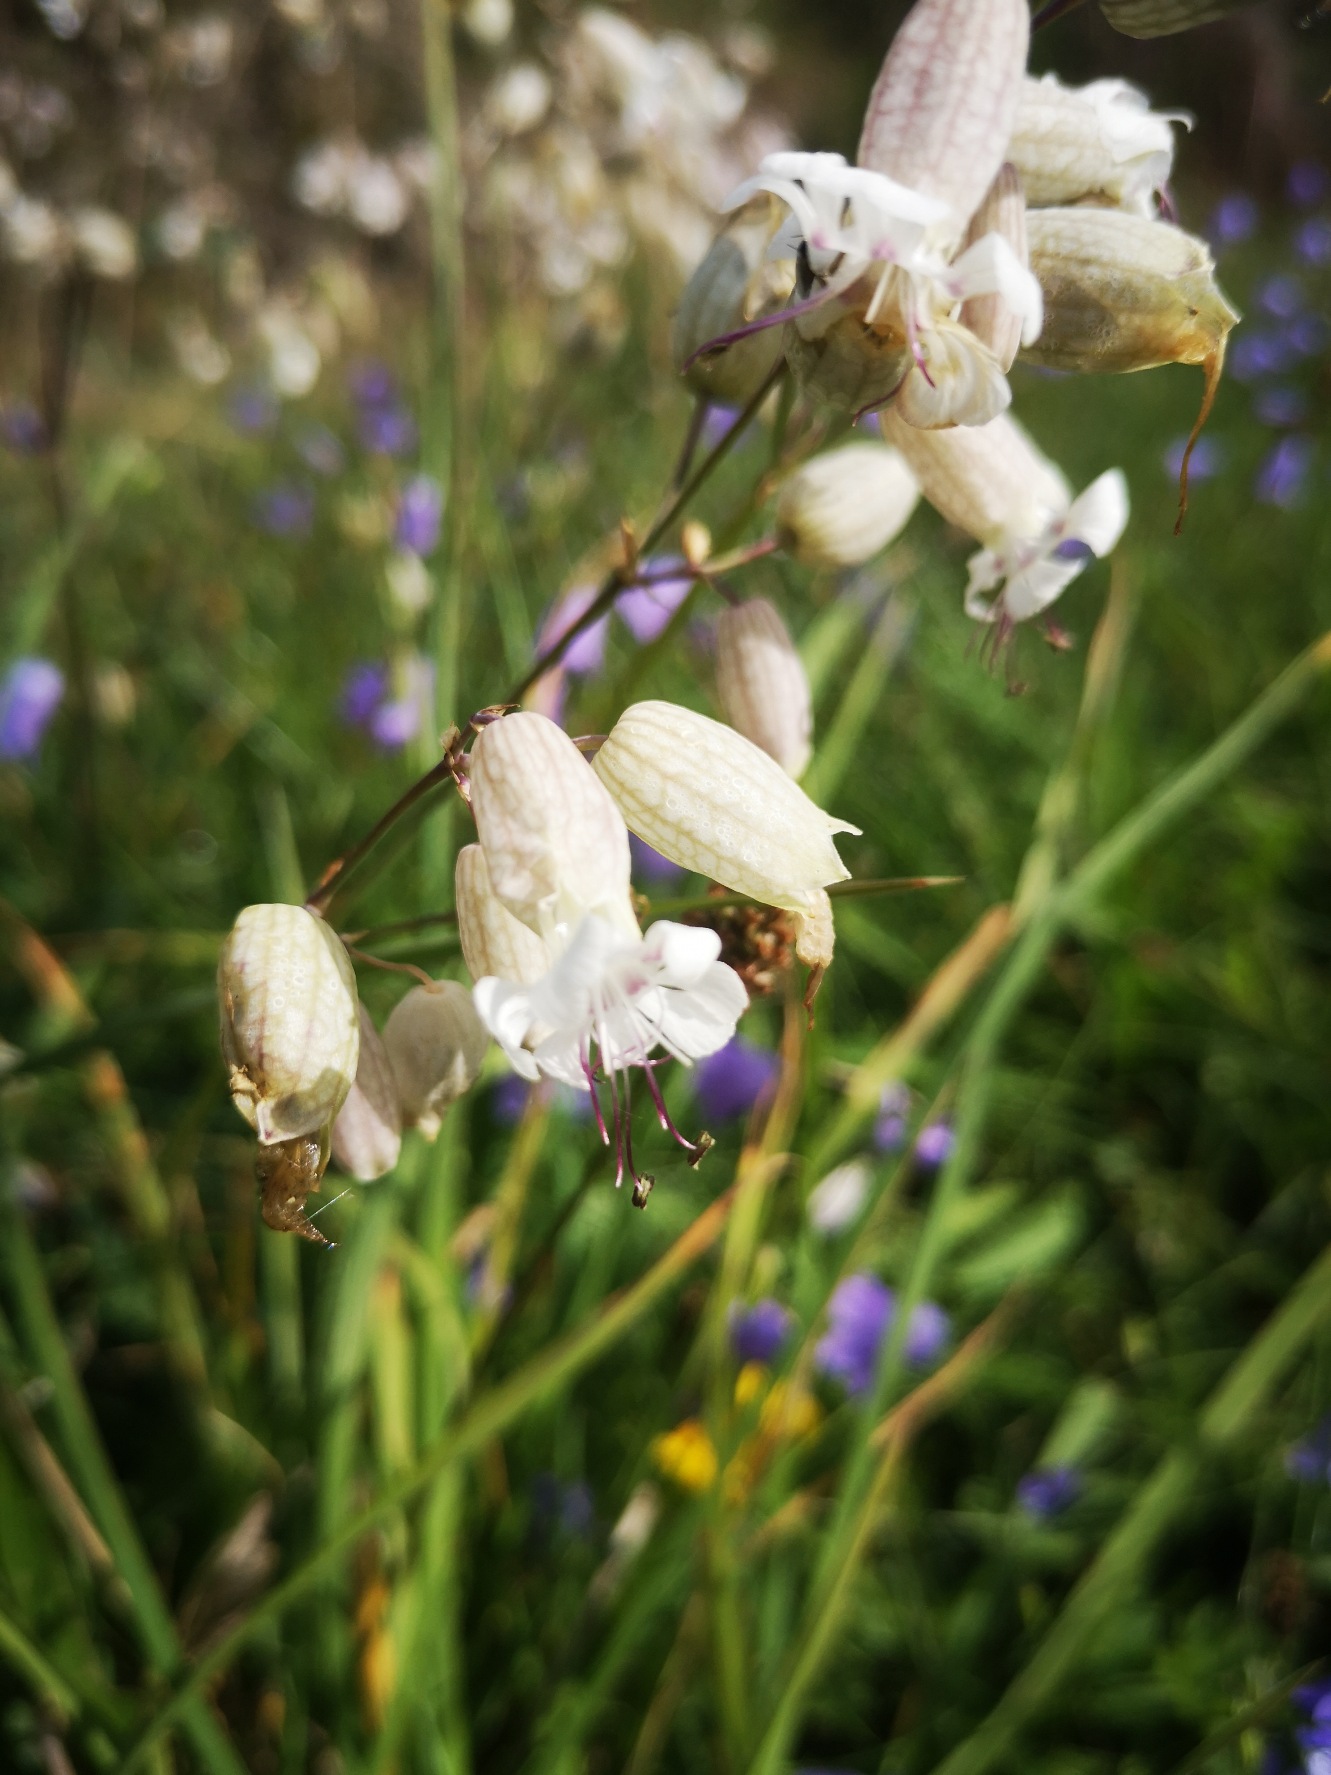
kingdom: Plantae
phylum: Tracheophyta
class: Magnoliopsida
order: Caryophyllales
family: Caryophyllaceae
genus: Silene
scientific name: Silene vulgaris
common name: Blæresmælde
